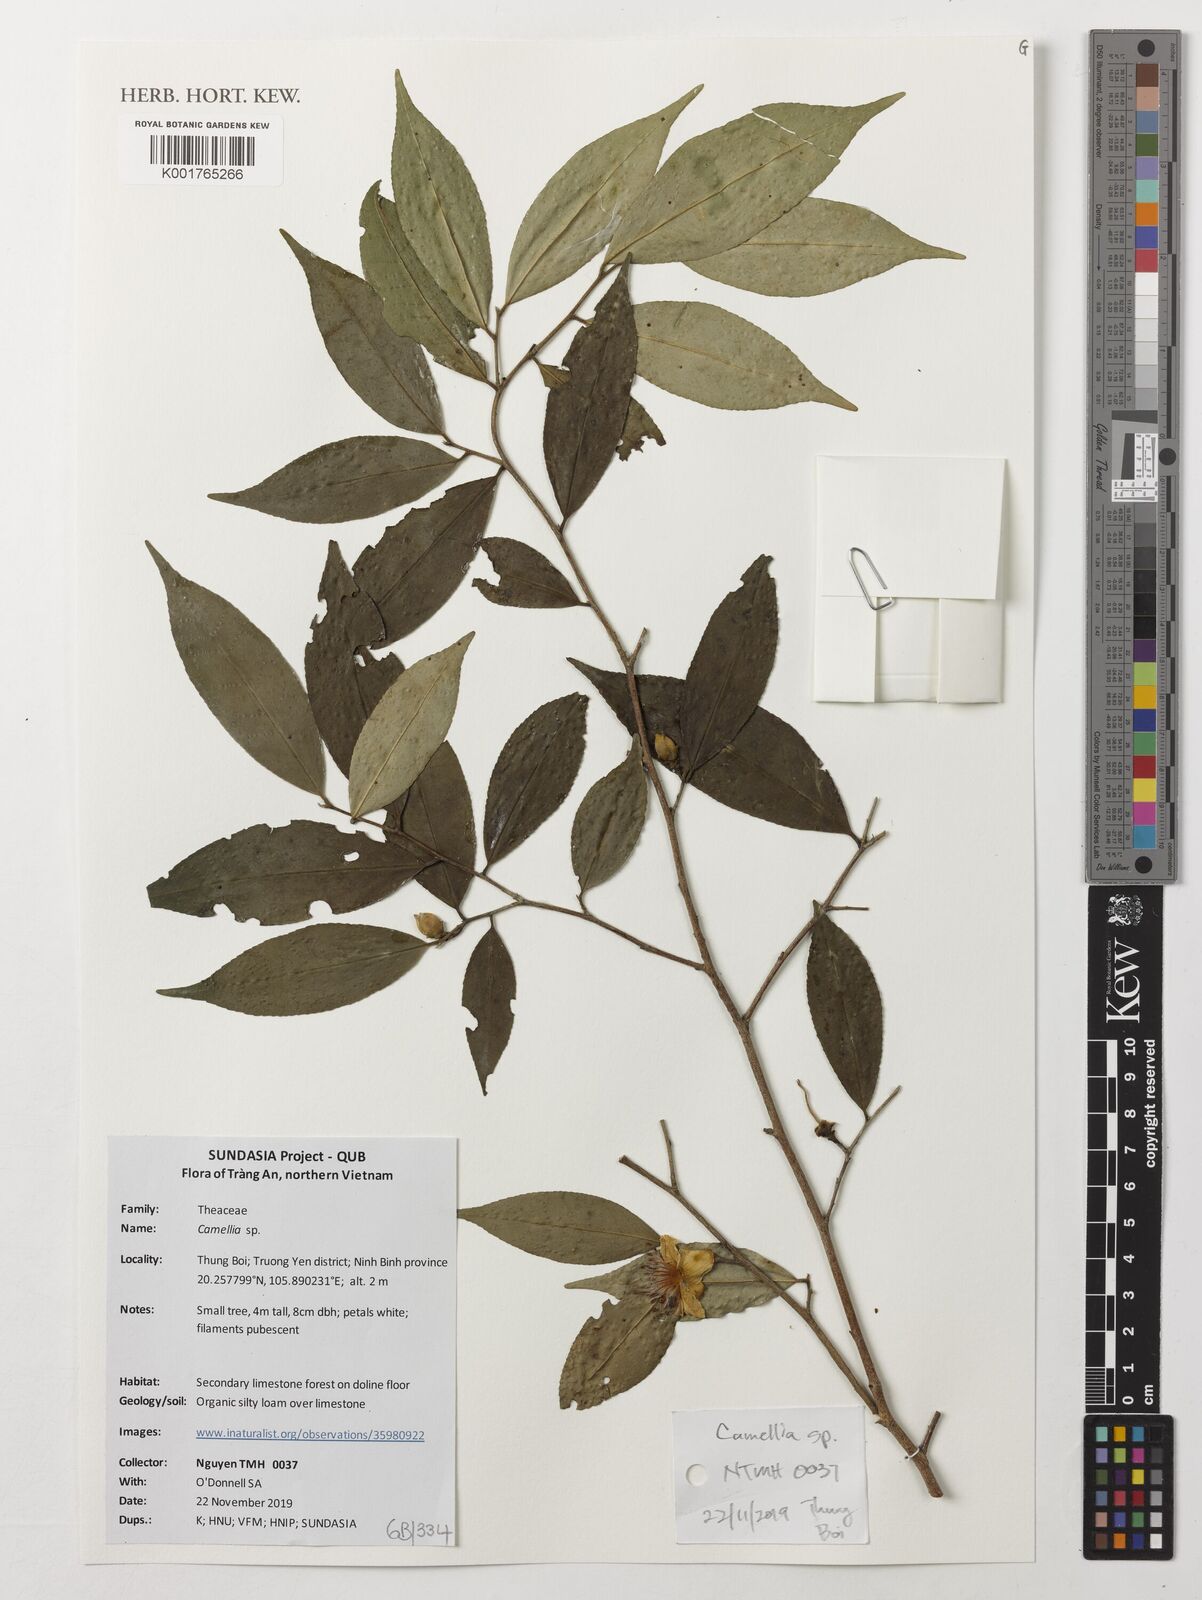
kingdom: Plantae
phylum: Tracheophyta
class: Magnoliopsida
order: Ericales
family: Theaceae
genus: Camellia
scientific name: Camellia
